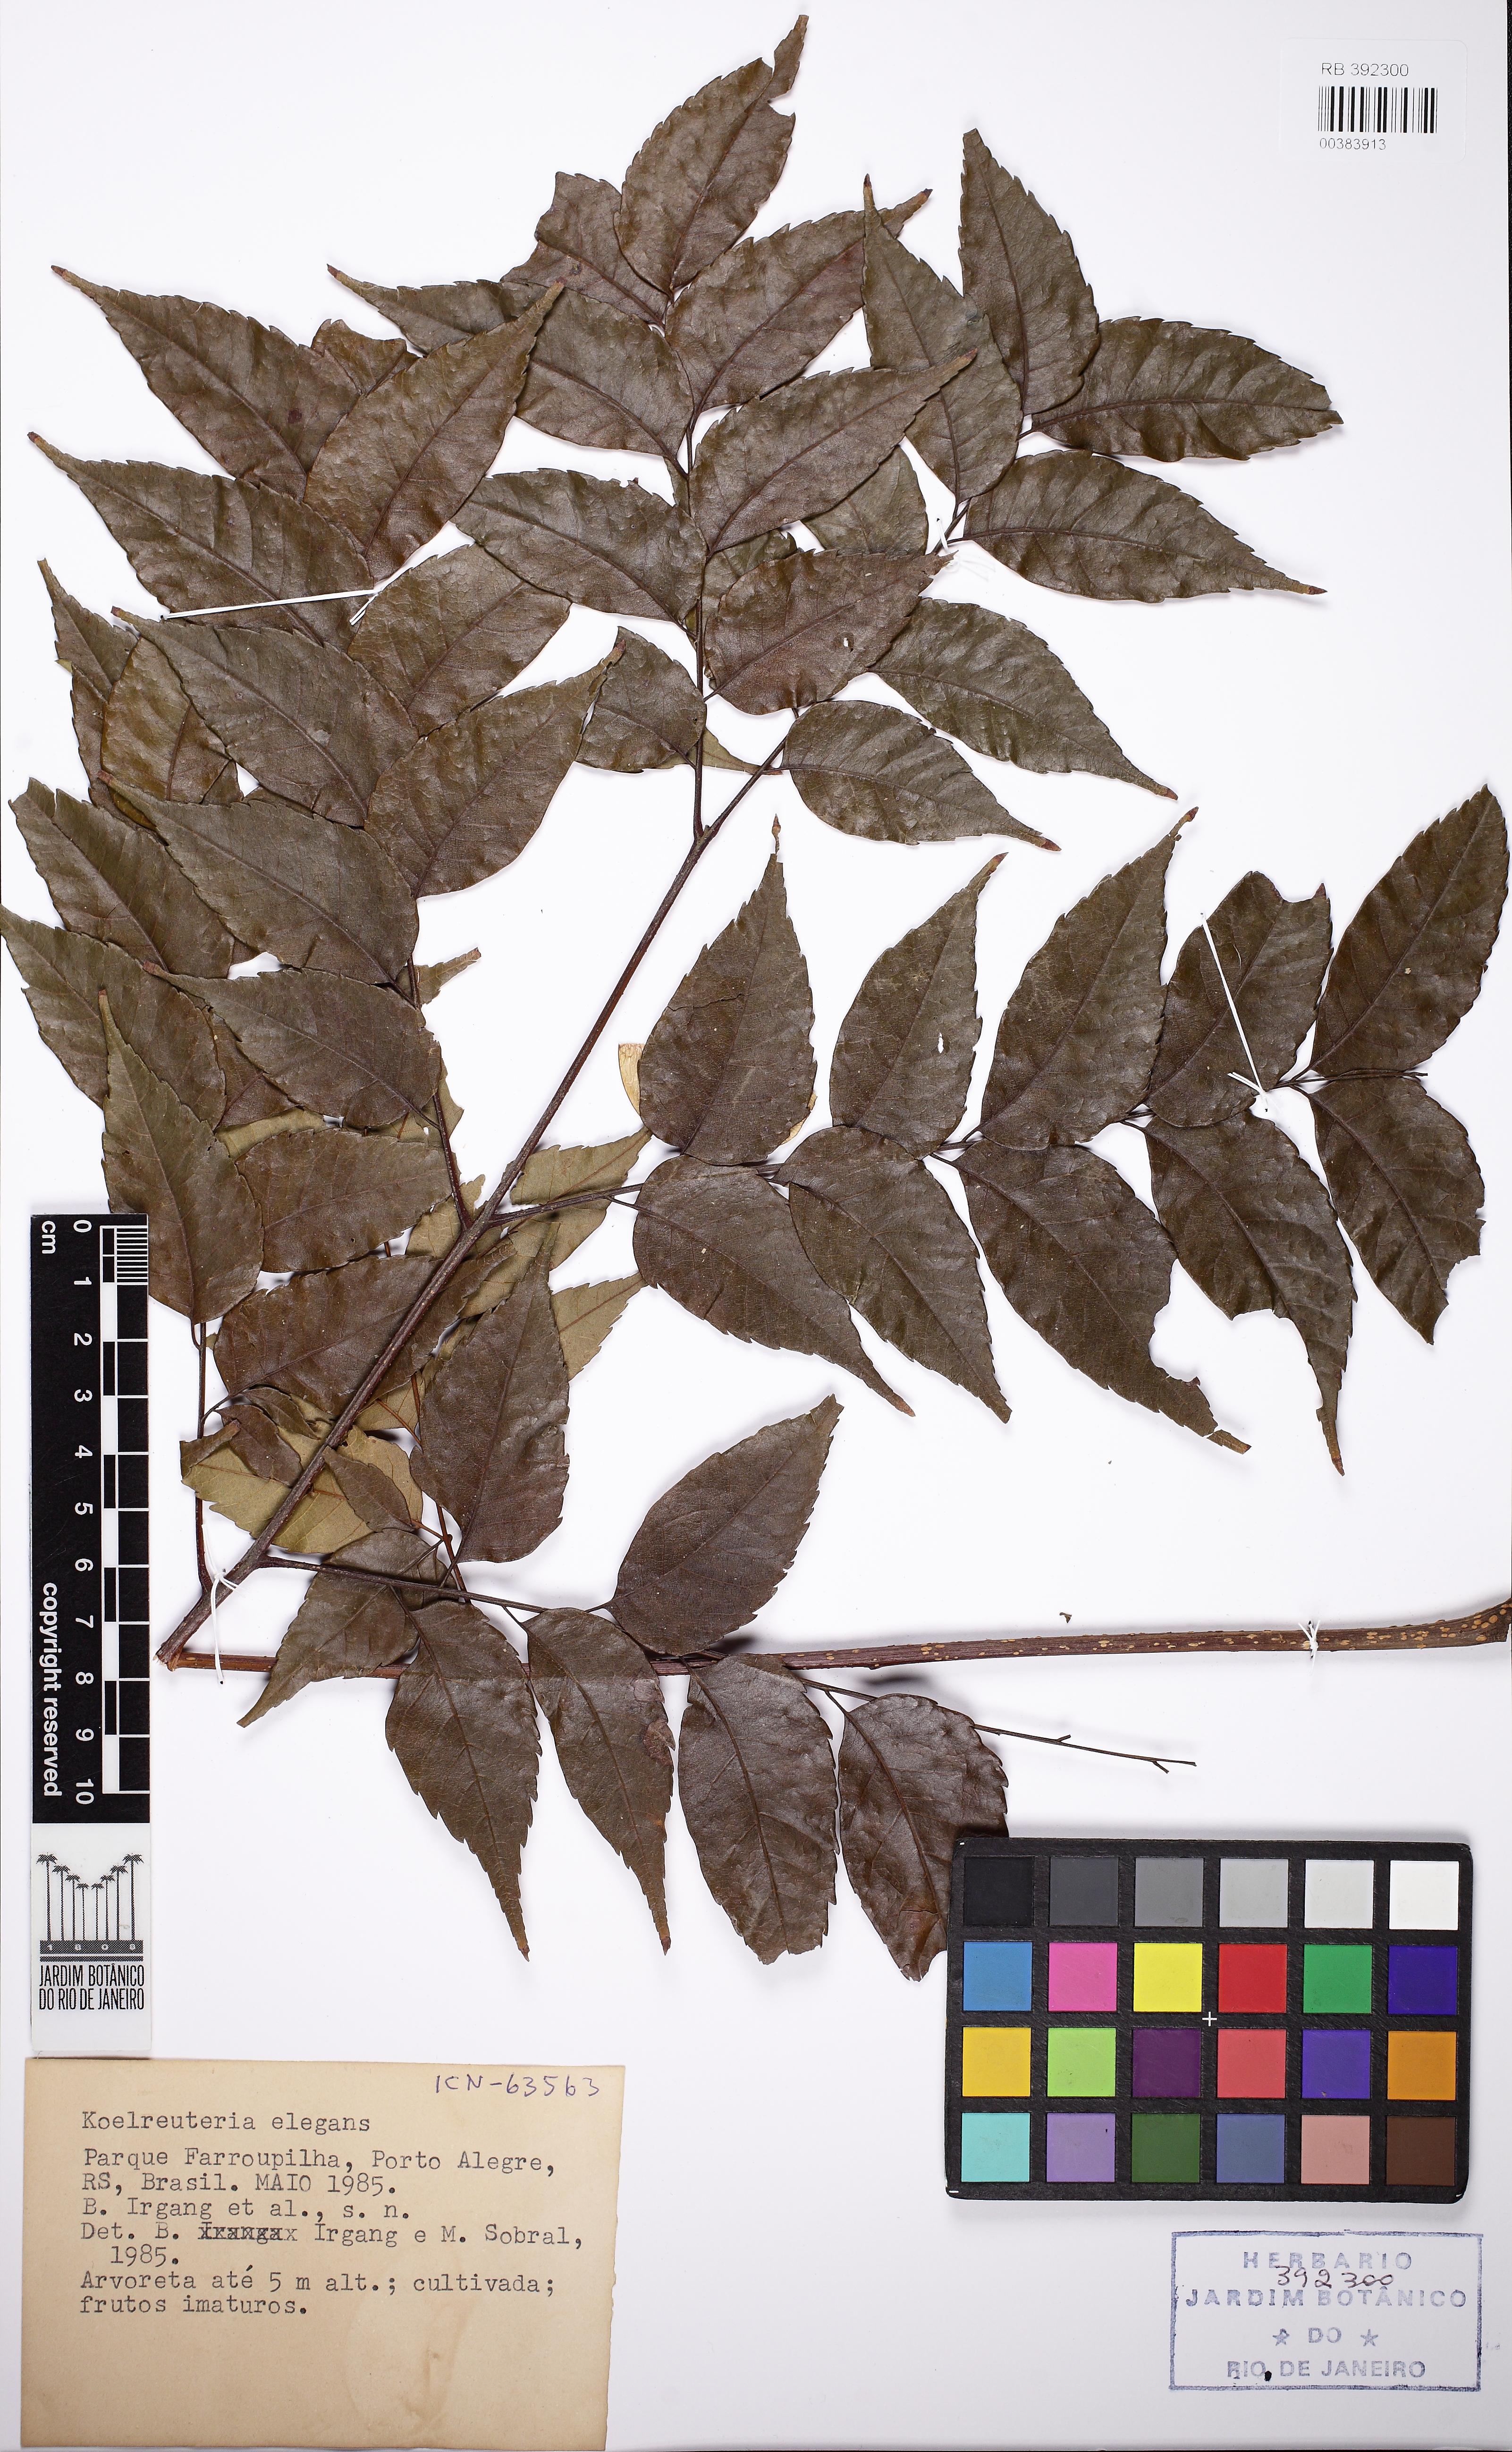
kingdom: Plantae
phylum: Tracheophyta
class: Magnoliopsida
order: Sapindales
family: Sapindaceae
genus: Koelreuteria
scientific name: Koelreuteria elegans
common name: Chinese flame tree
